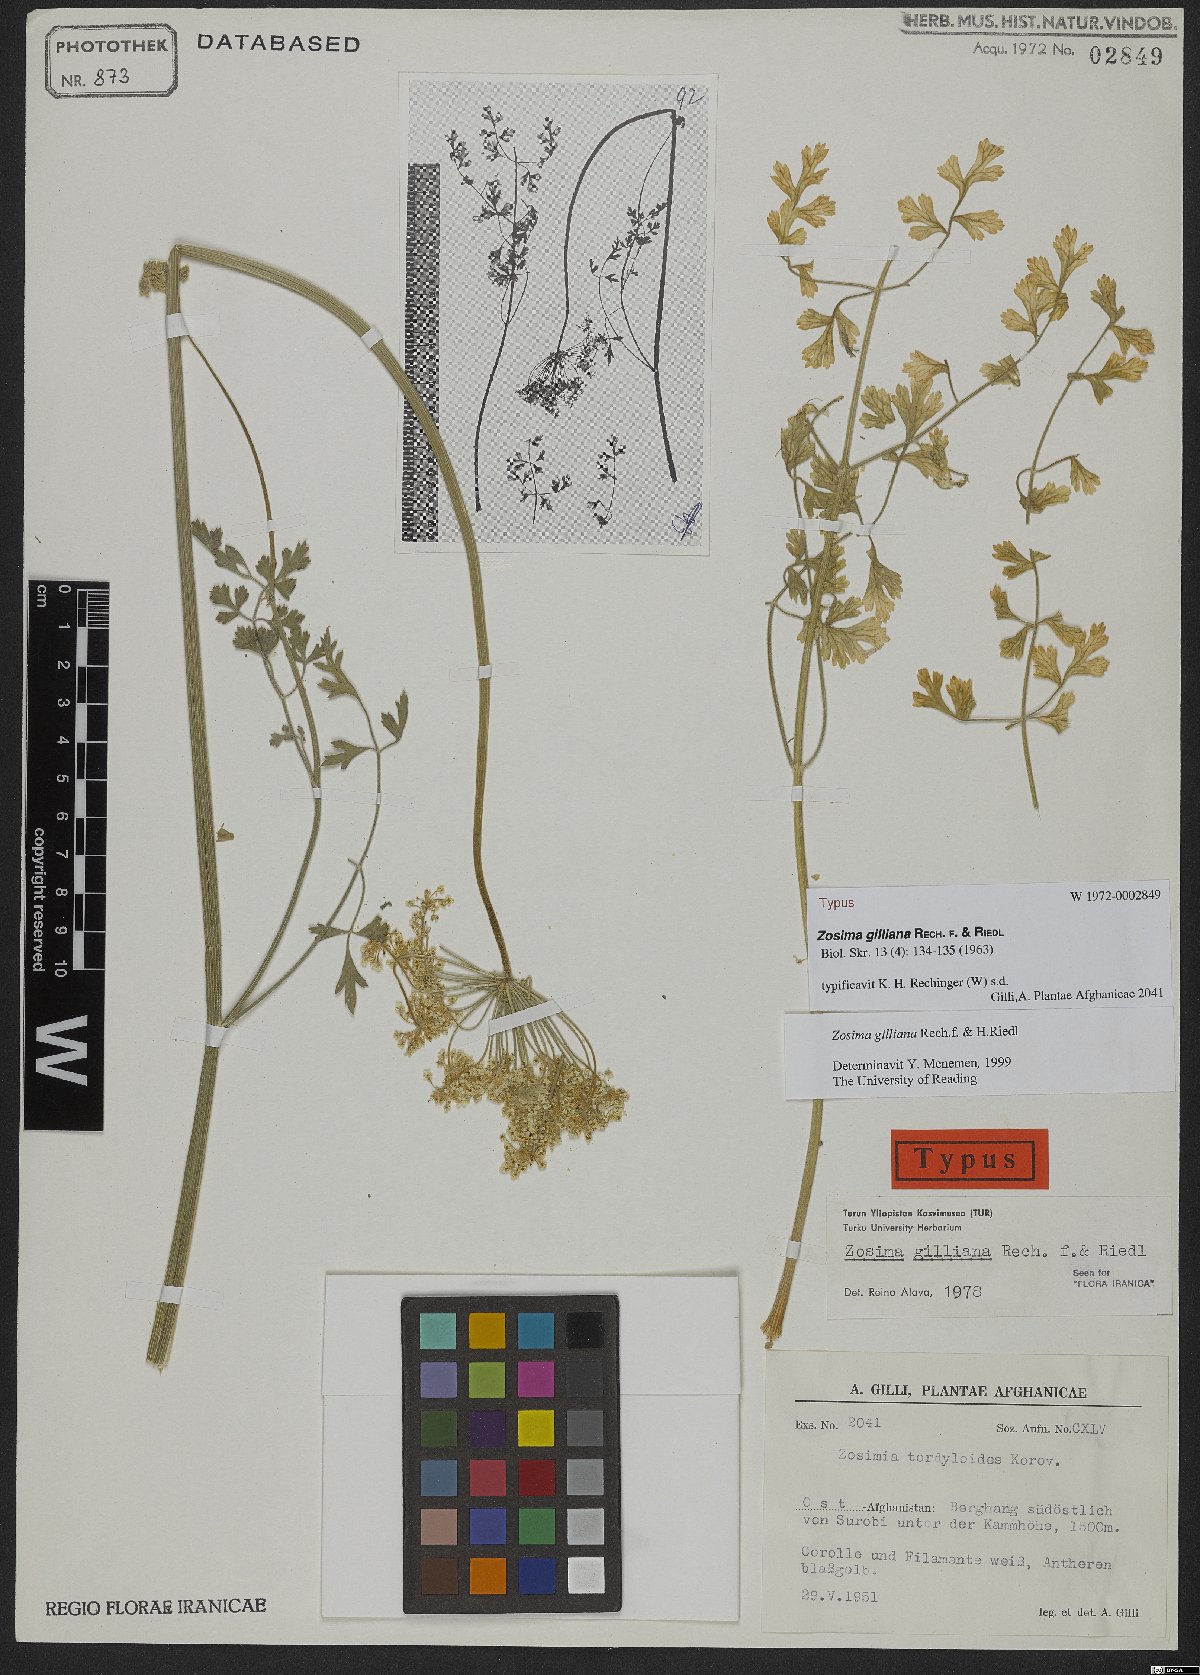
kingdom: Plantae
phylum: Tracheophyta
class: Magnoliopsida
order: Apiales
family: Apiaceae
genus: Zosima
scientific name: Zosima gilliana
